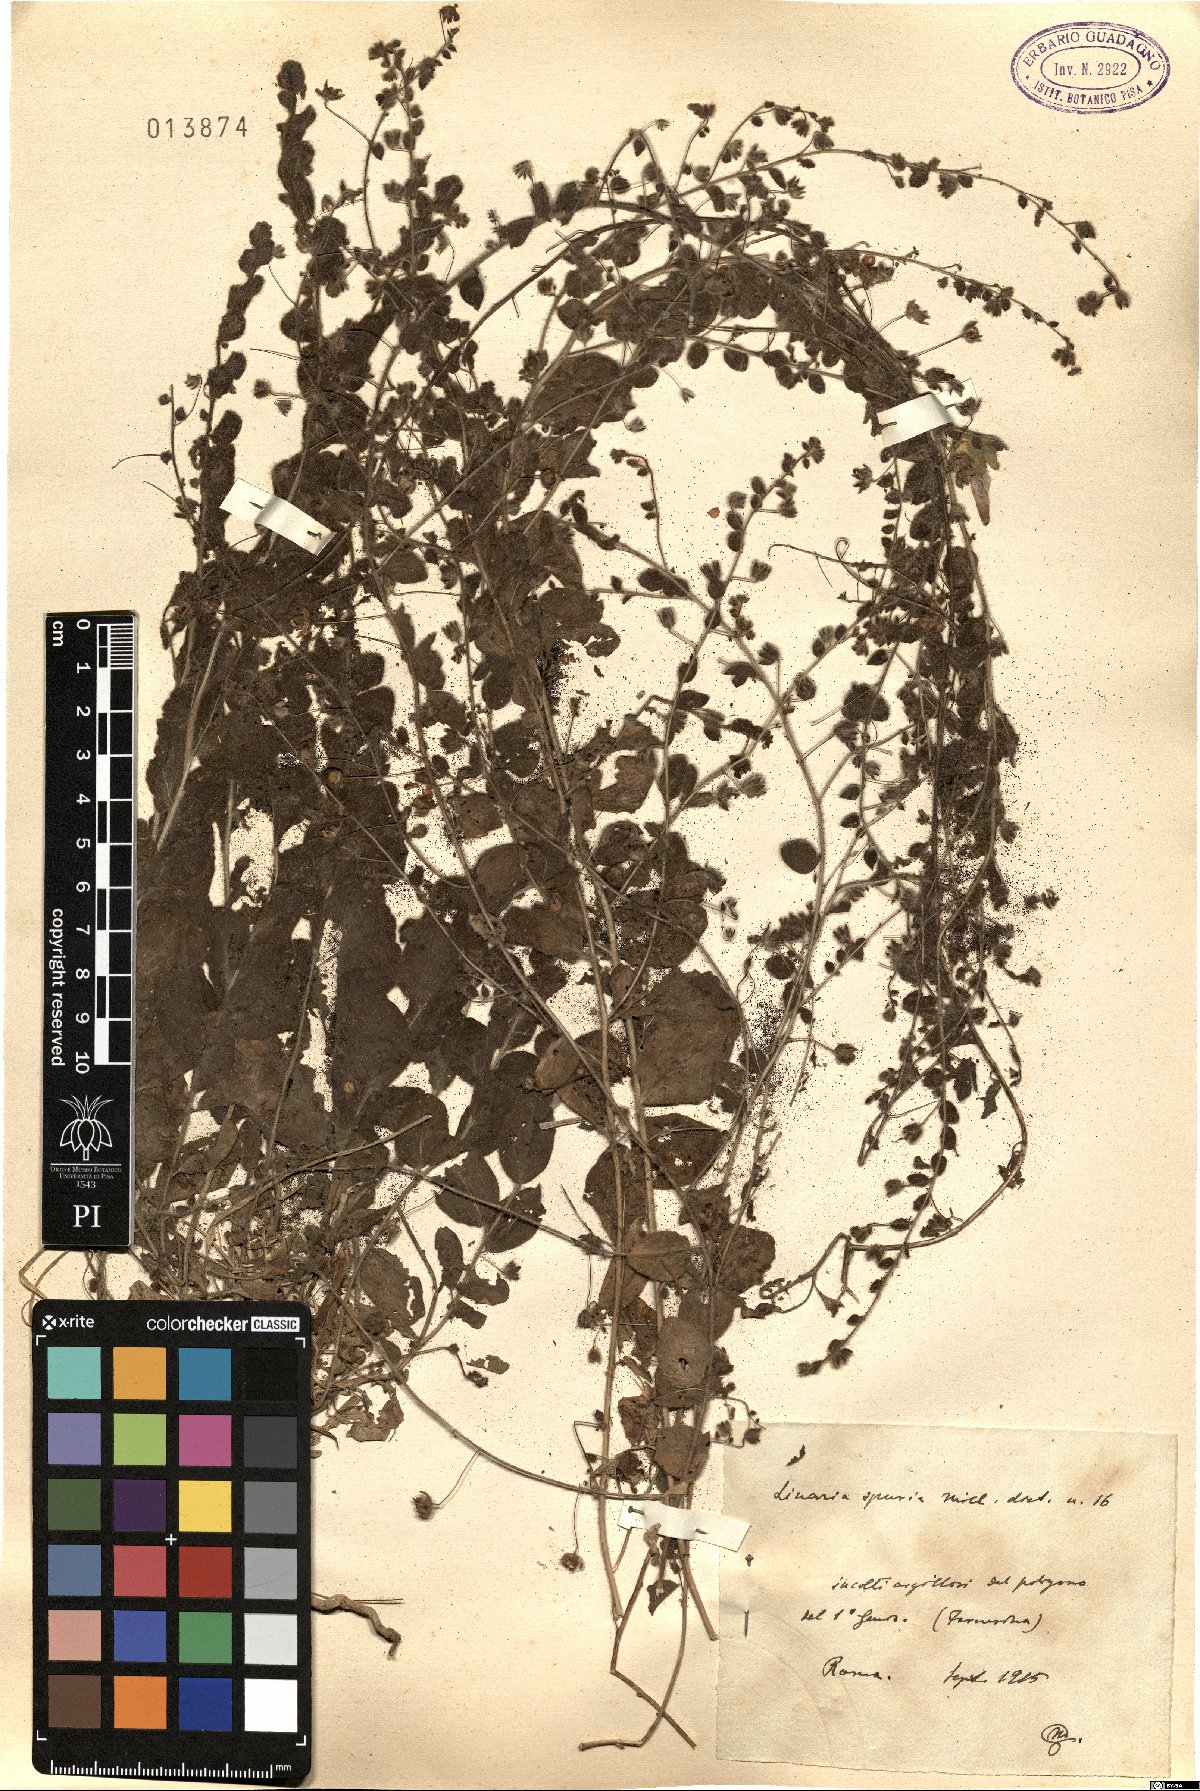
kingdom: Plantae
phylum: Tracheophyta
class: Magnoliopsida
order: Lamiales
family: Plantaginaceae
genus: Kickxia
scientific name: Kickxia spuria
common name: Round-leaved fluellen
